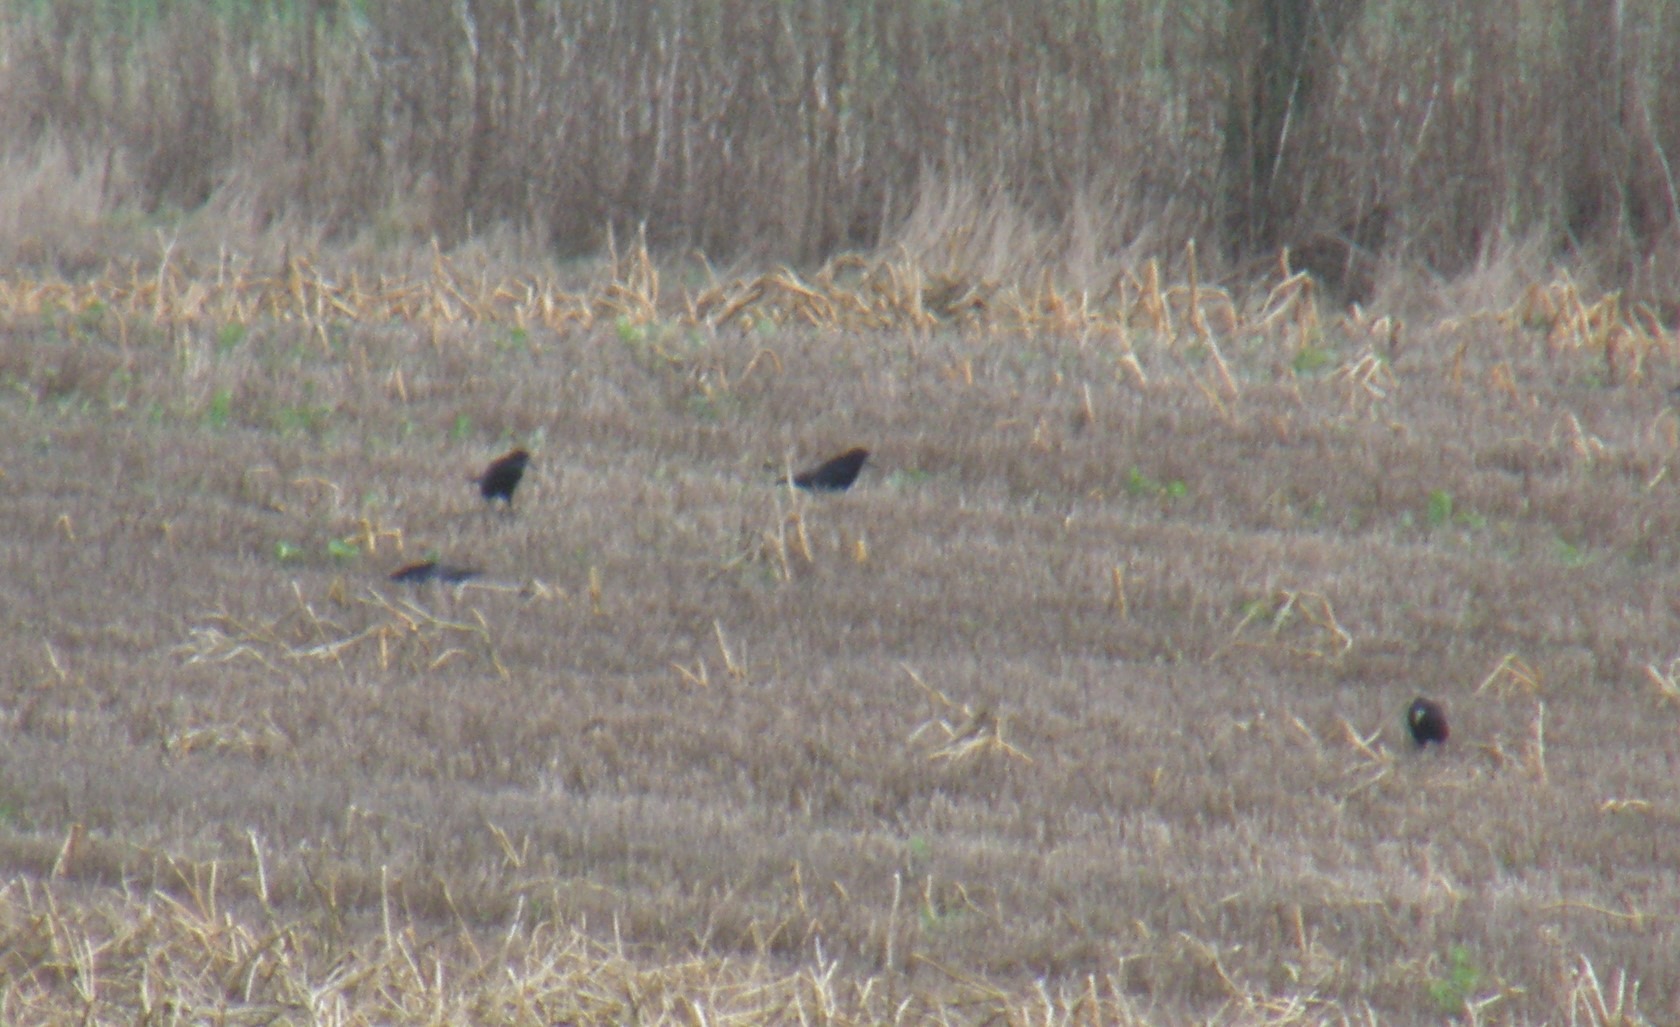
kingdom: Animalia
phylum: Chordata
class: Aves
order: Passeriformes
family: Corvidae
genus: Corvus
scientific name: Corvus frugilegus
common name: Råge
